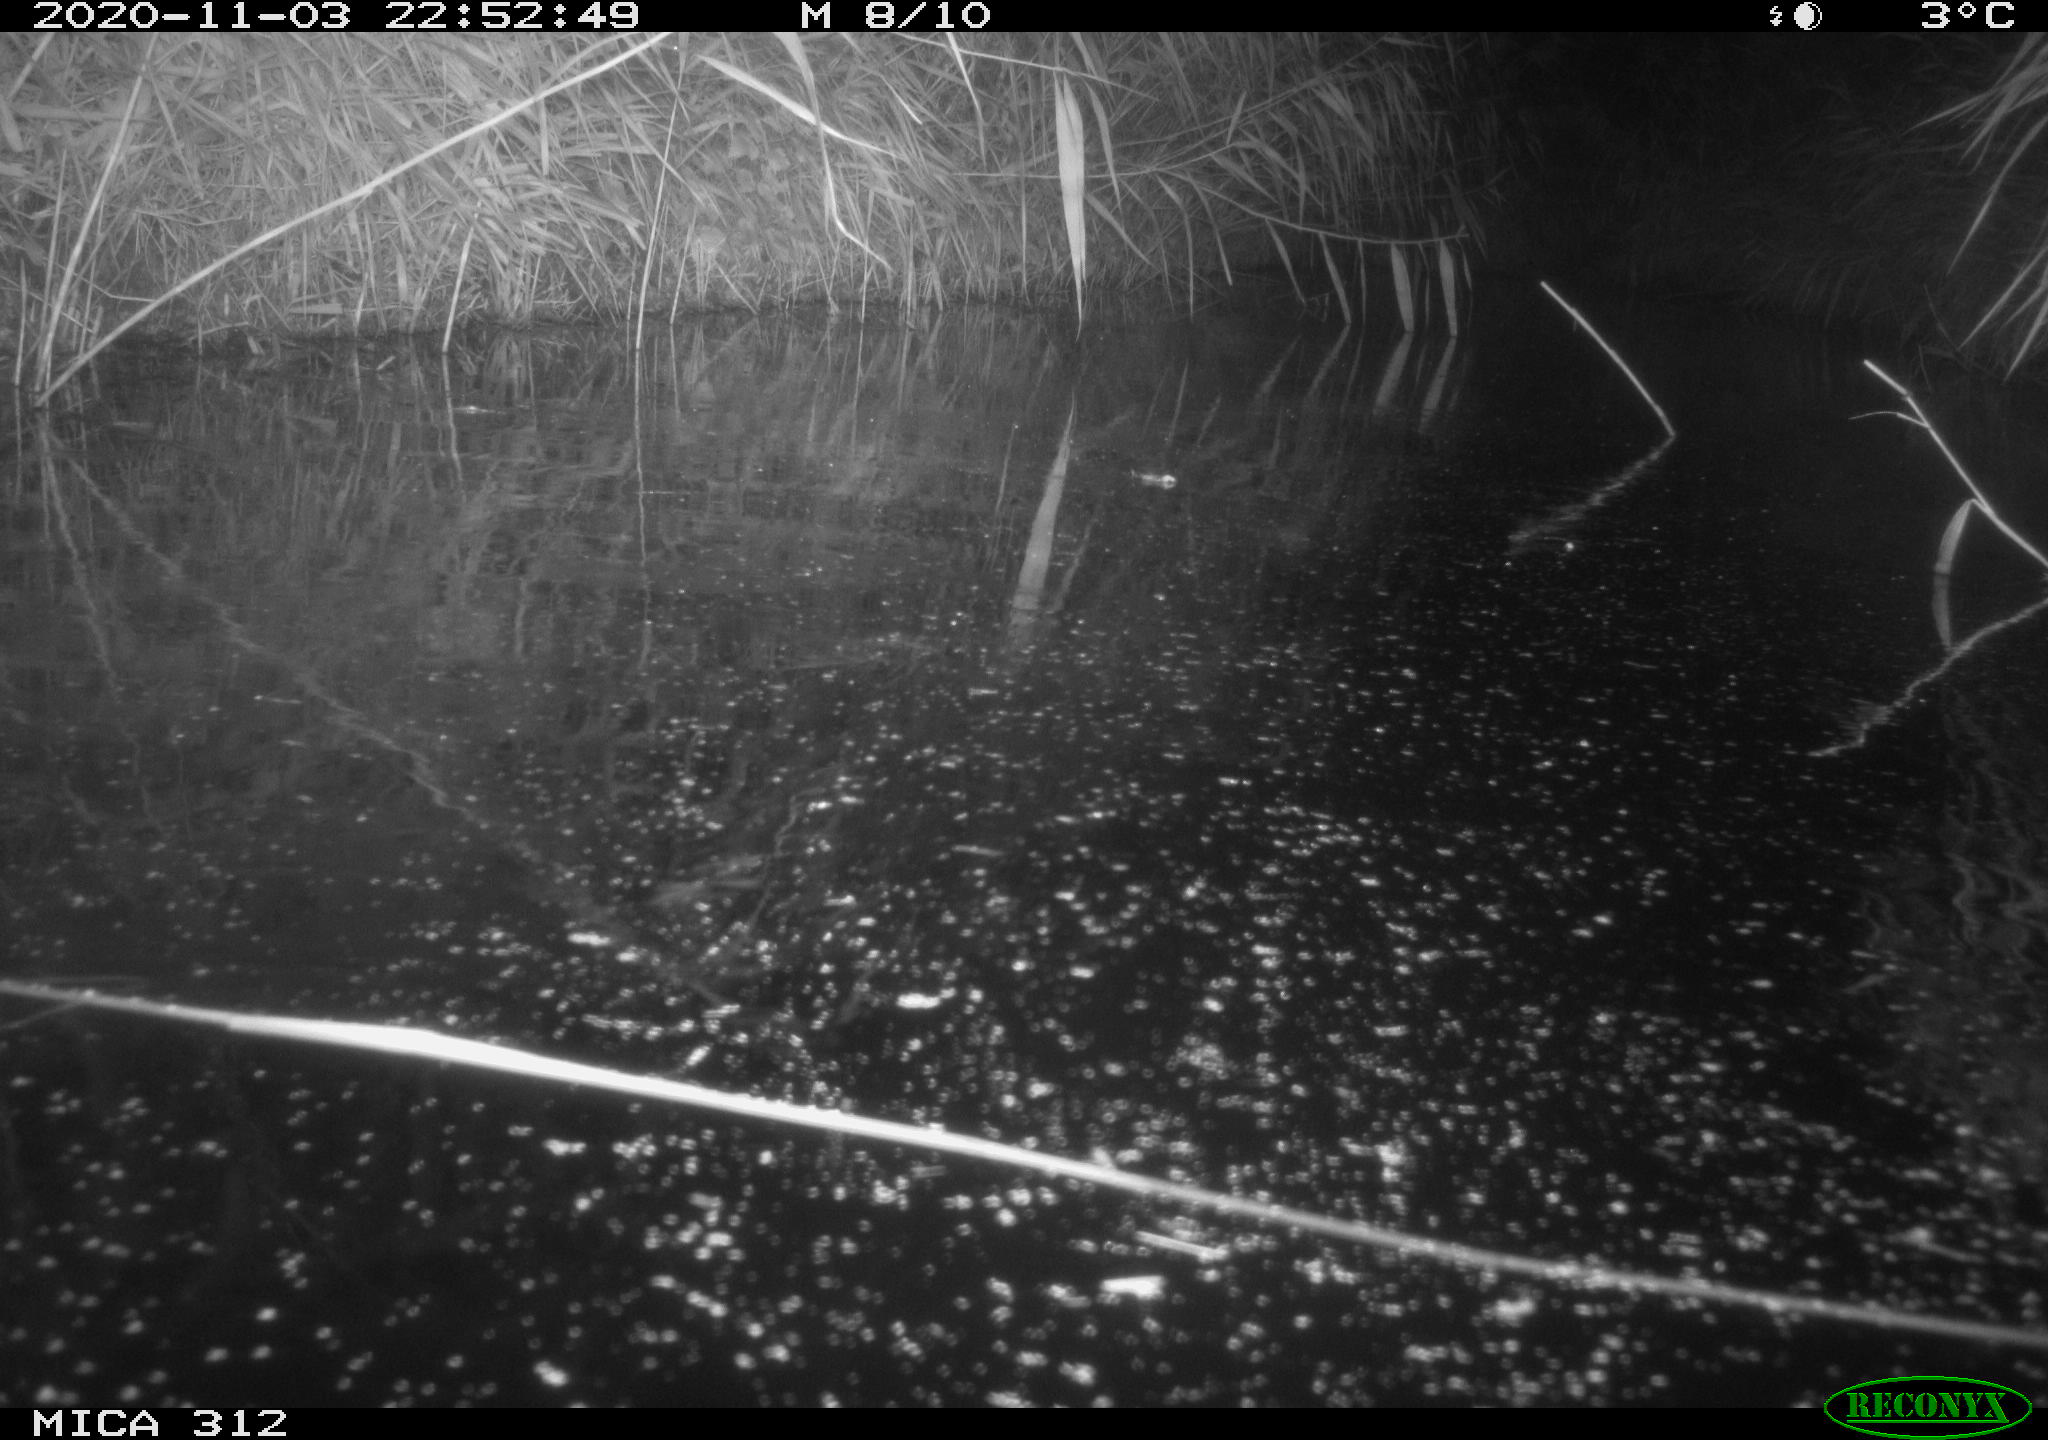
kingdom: Animalia
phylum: Chordata
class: Mammalia
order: Rodentia
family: Cricetidae
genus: Ondatra
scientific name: Ondatra zibethicus
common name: Muskrat
